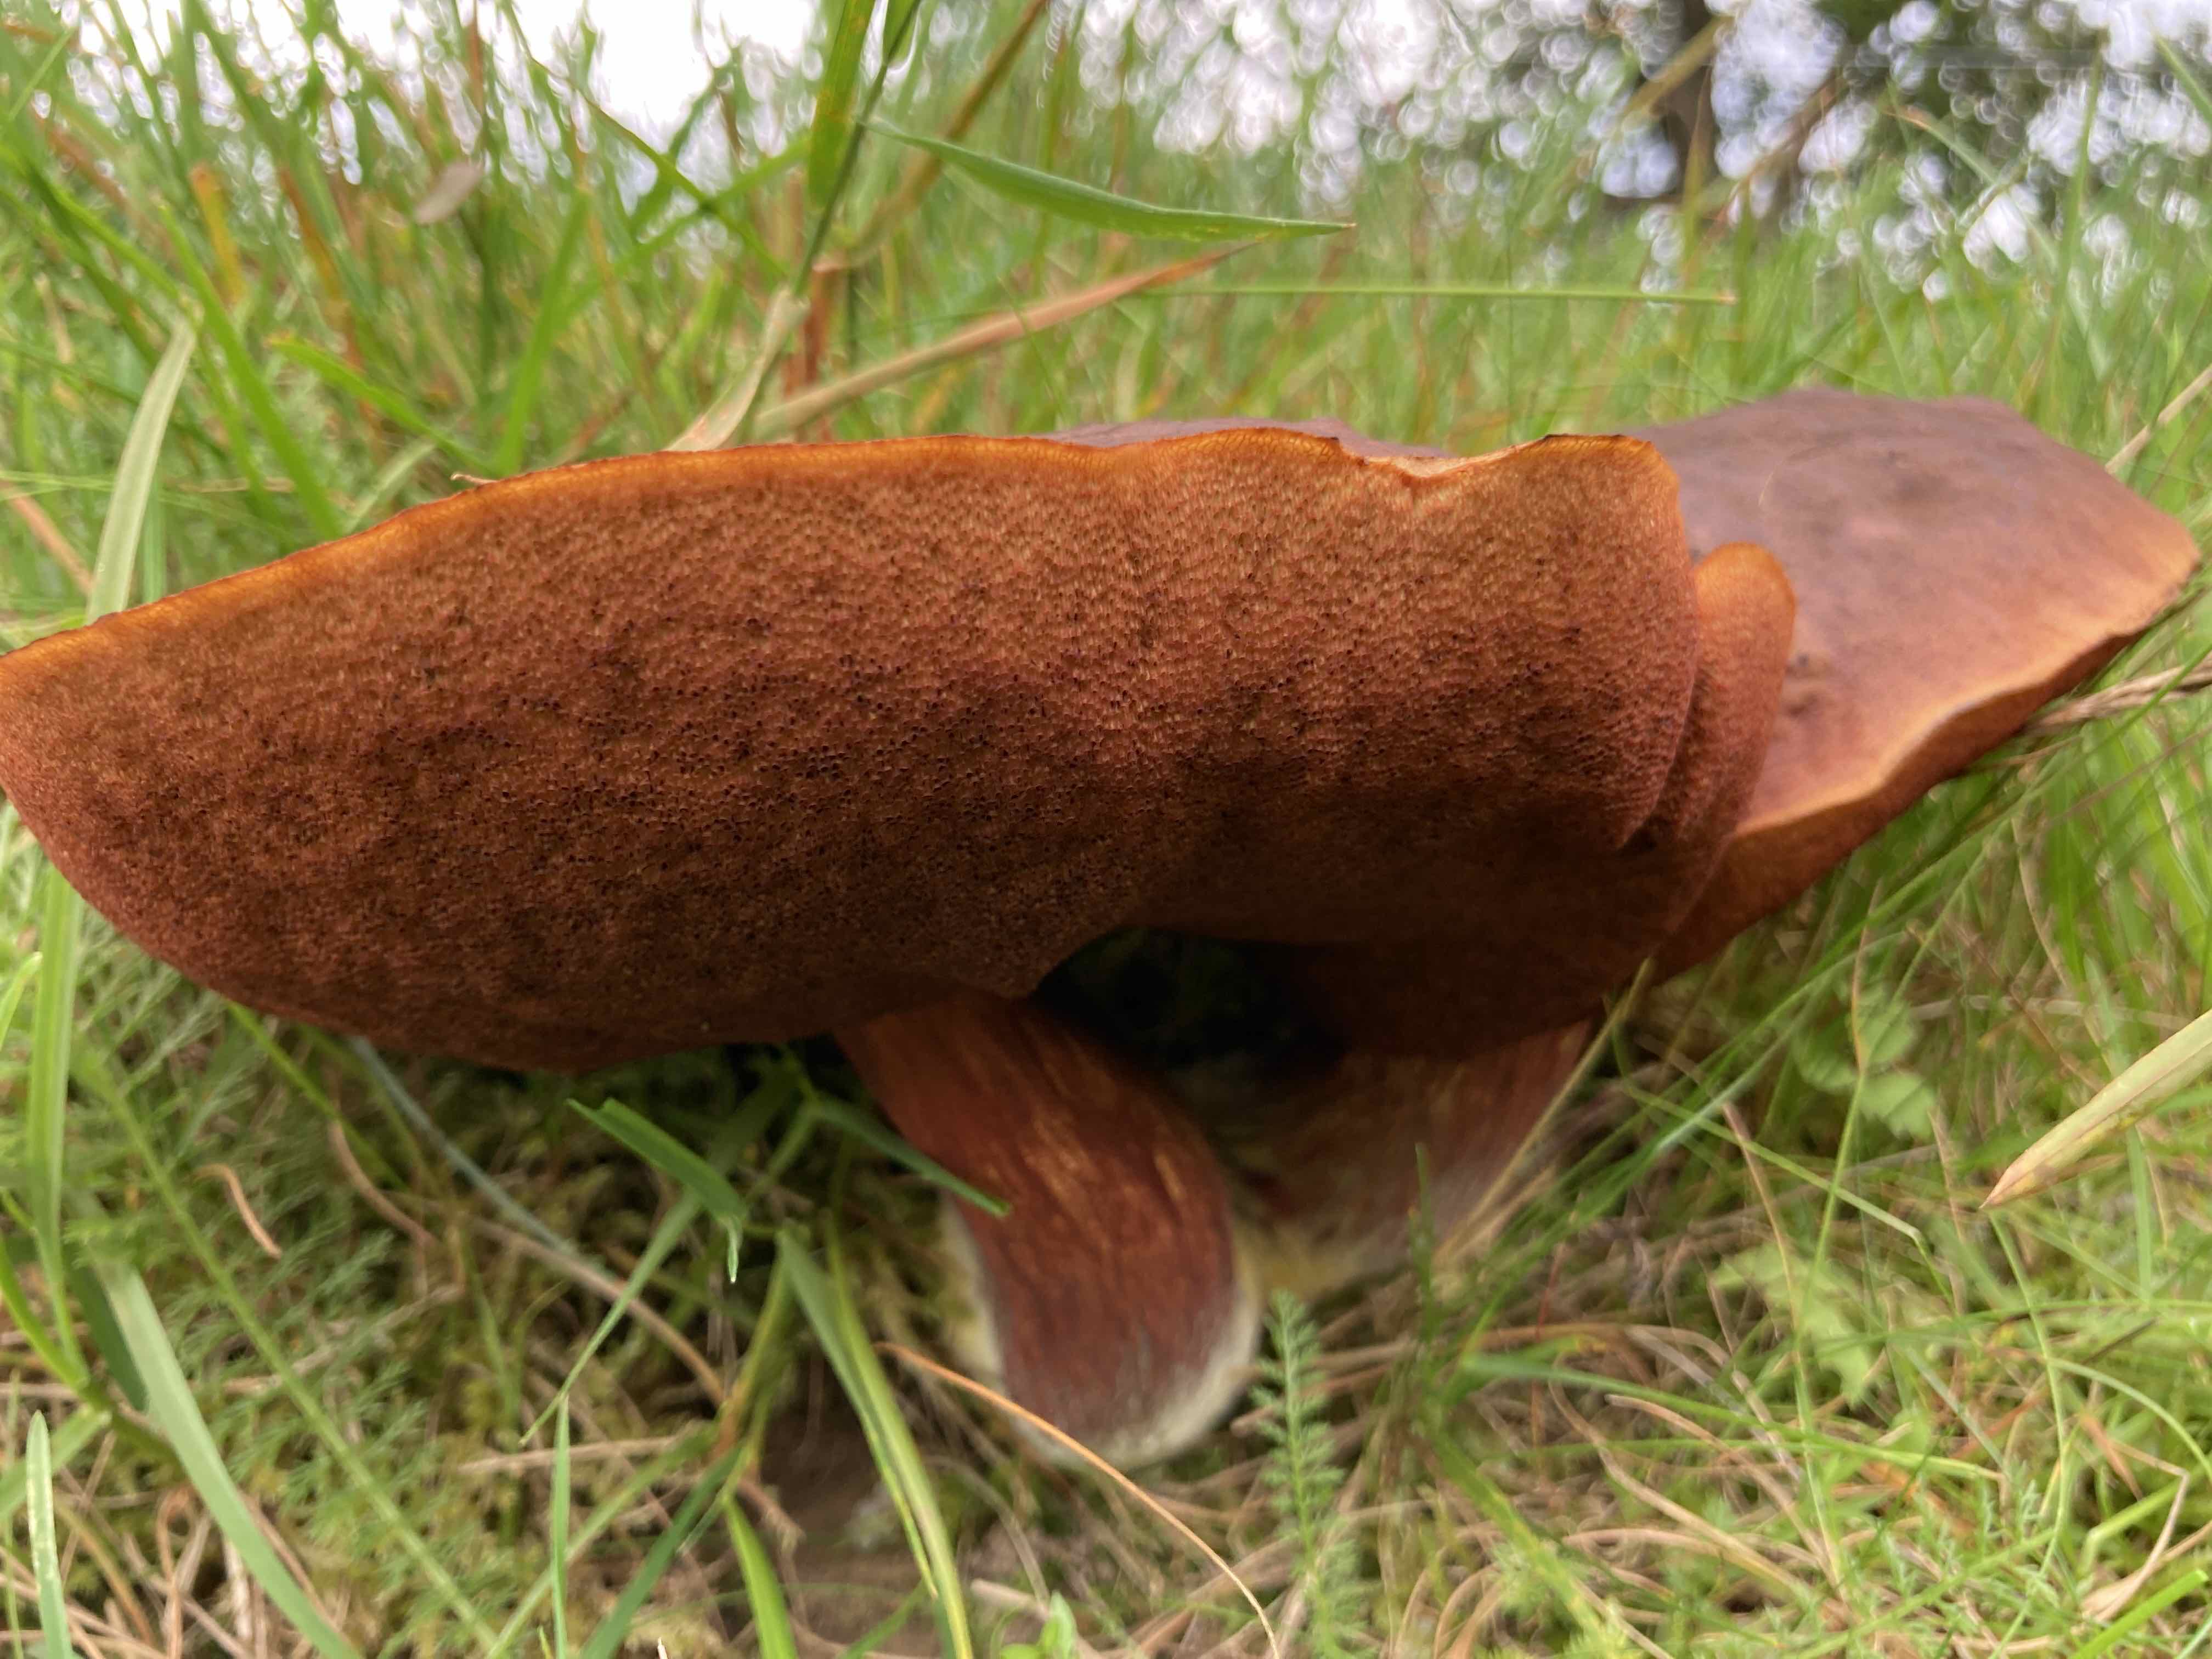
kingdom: Fungi
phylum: Basidiomycota
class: Agaricomycetes
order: Boletales
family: Boletaceae
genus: Neoboletus
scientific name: Neoboletus erythropus
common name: punktstokket indigorørhat
